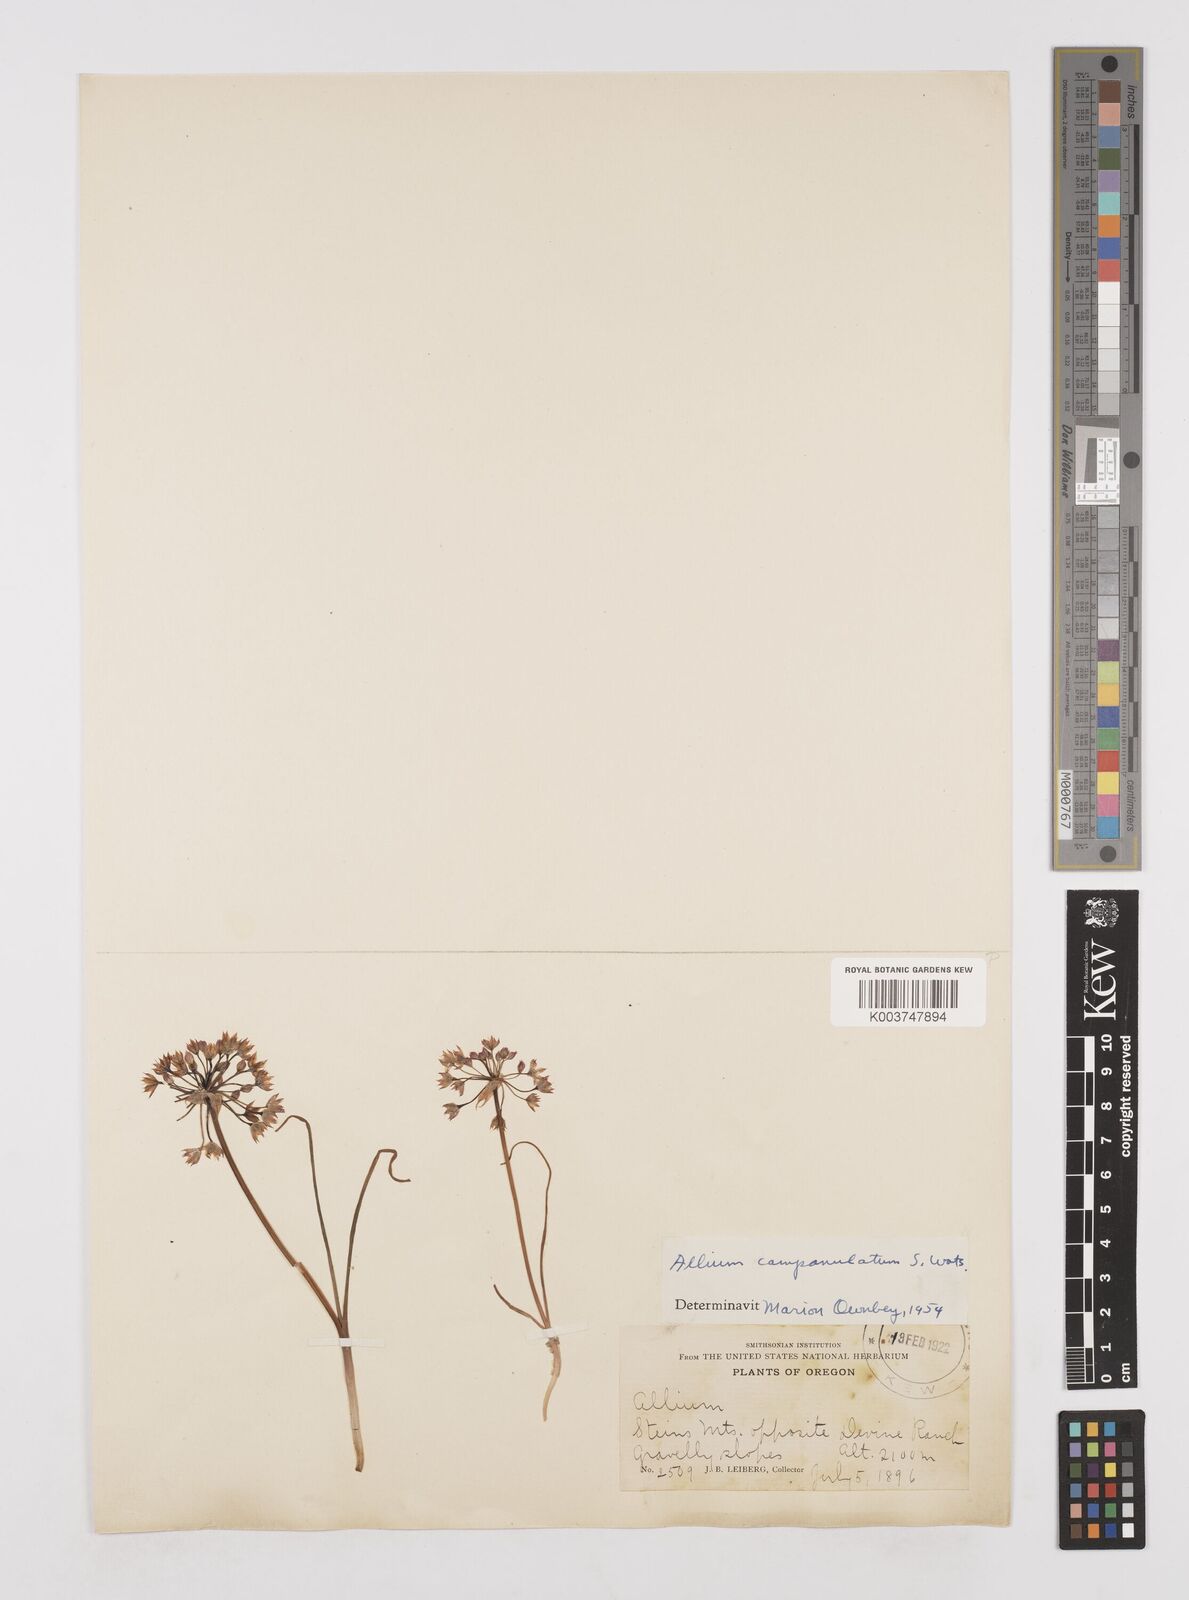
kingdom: Plantae
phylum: Tracheophyta
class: Liliopsida
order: Asparagales
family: Amaryllidaceae
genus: Allium
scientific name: Allium campanulatum
